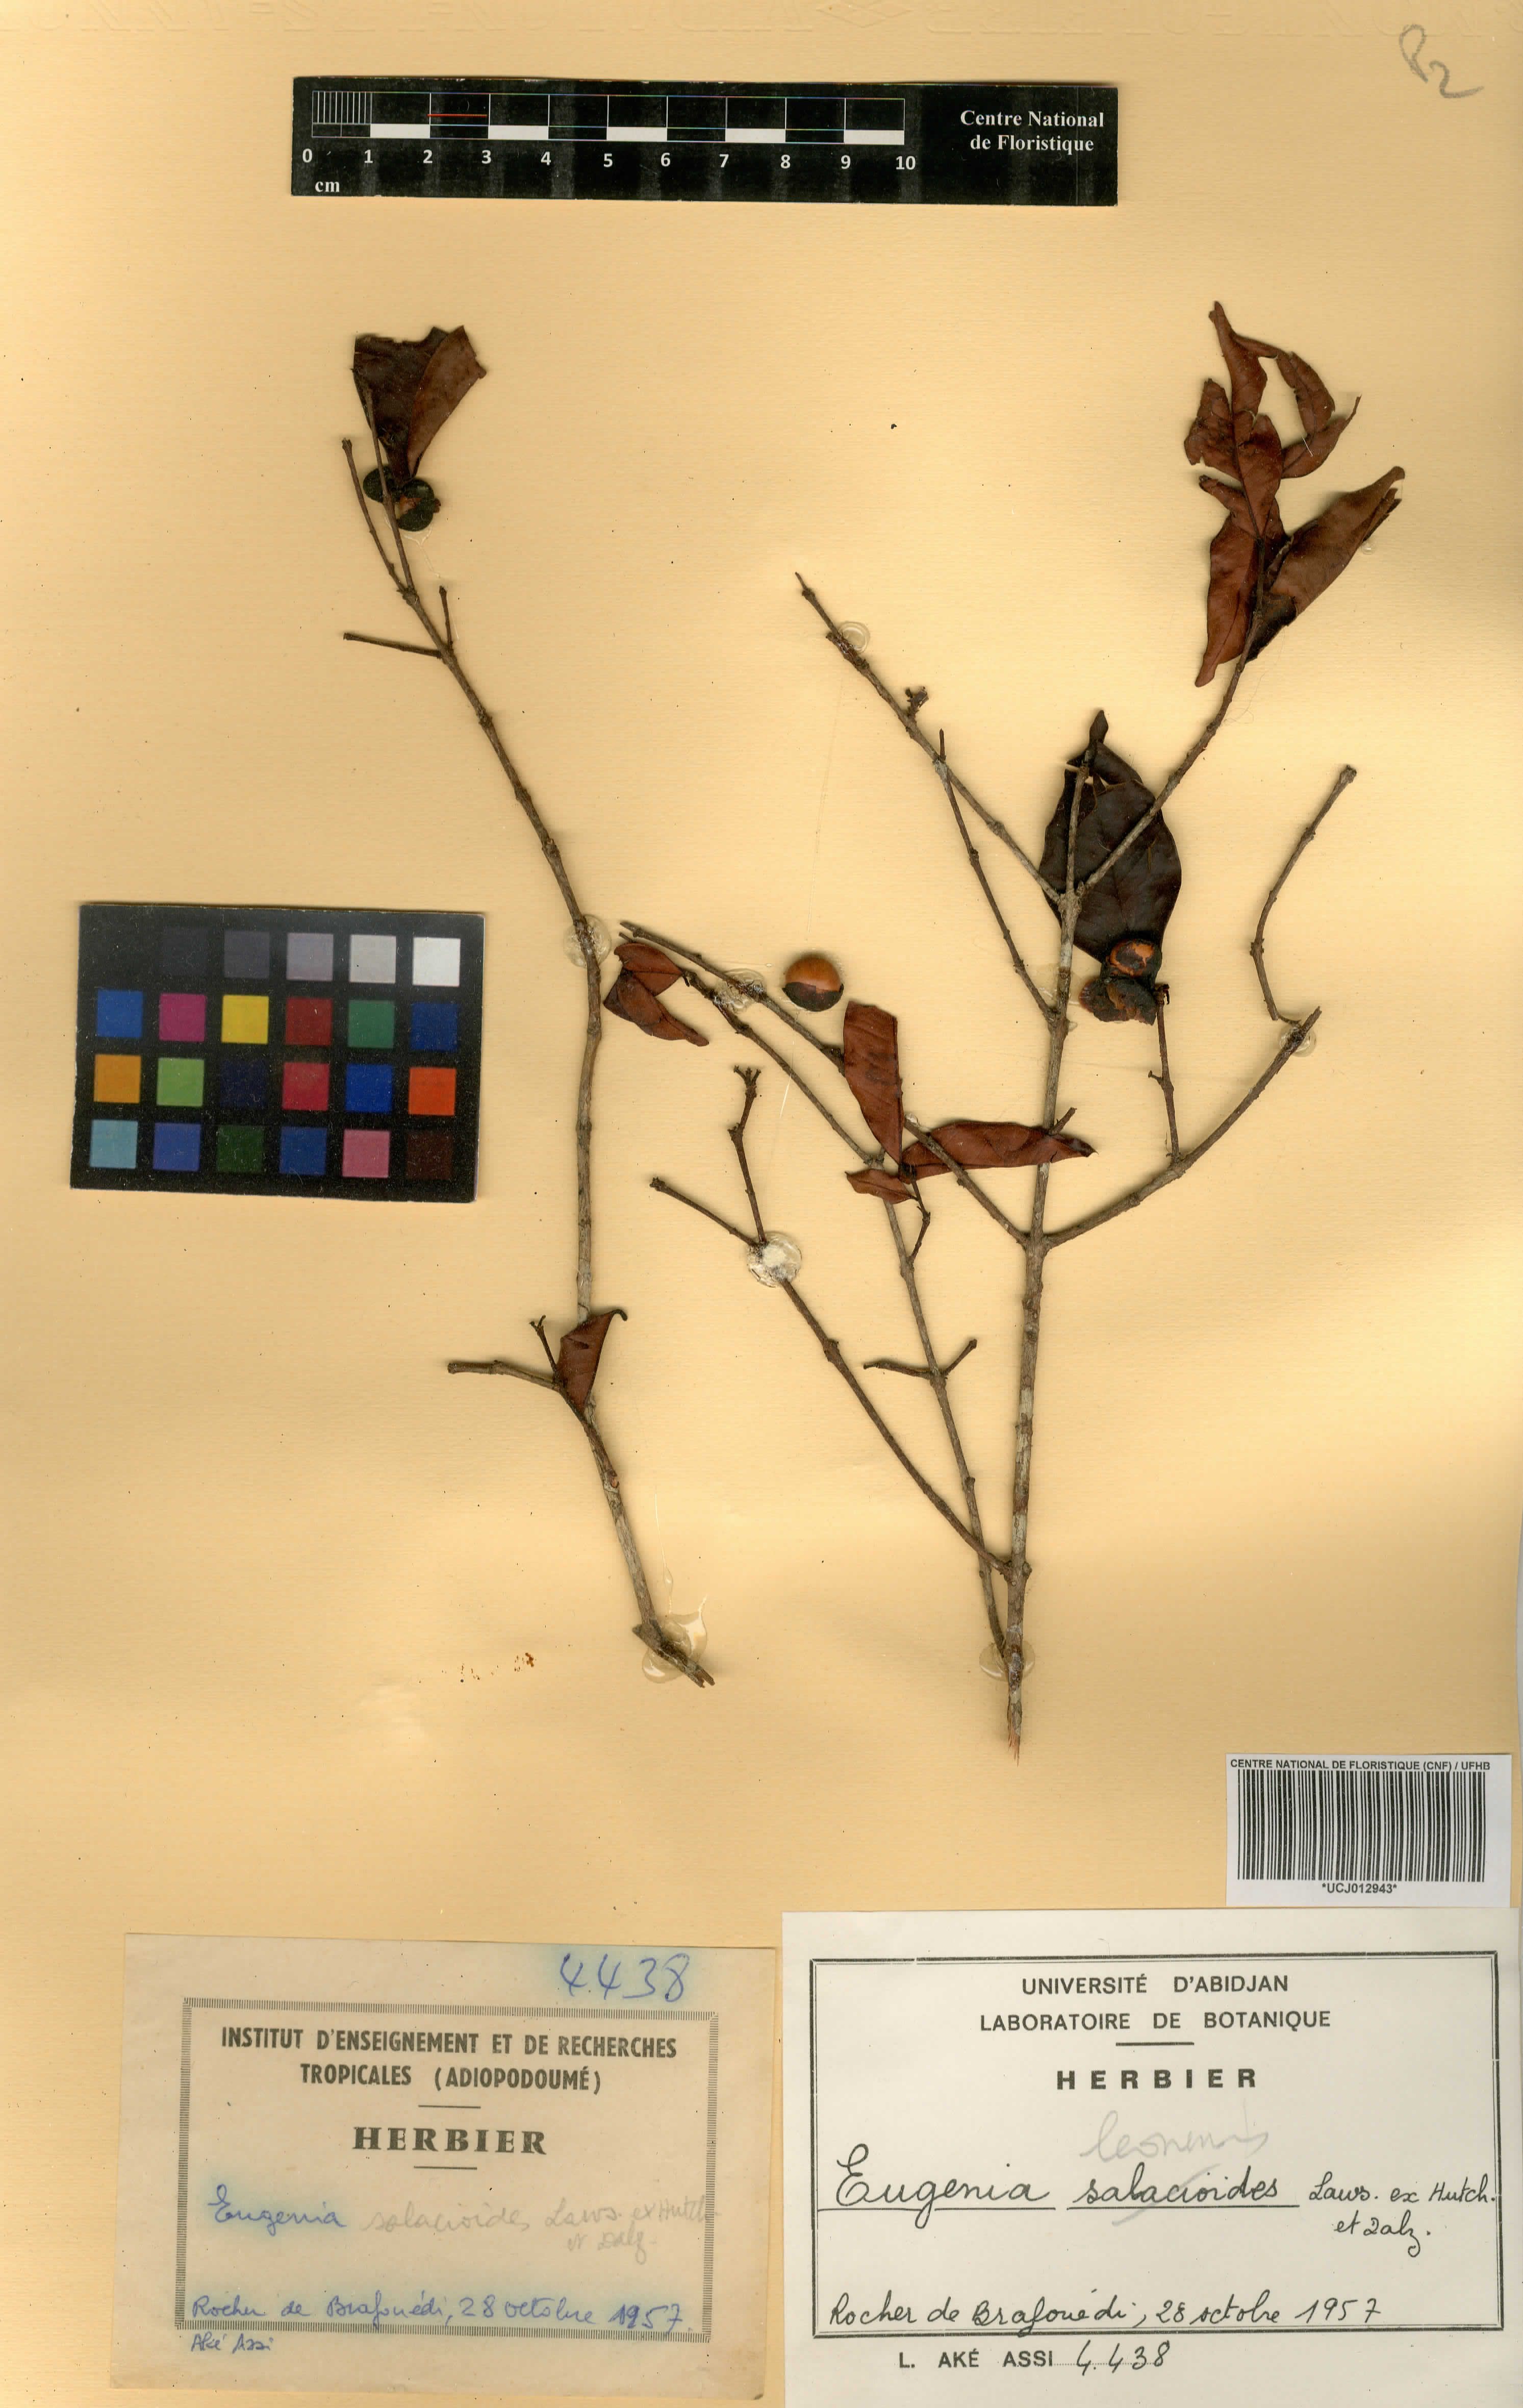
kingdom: Plantae
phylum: Tracheophyta
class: Magnoliopsida
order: Myrtales
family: Myrtaceae
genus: Eugenia
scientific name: Eugenia leonensis
